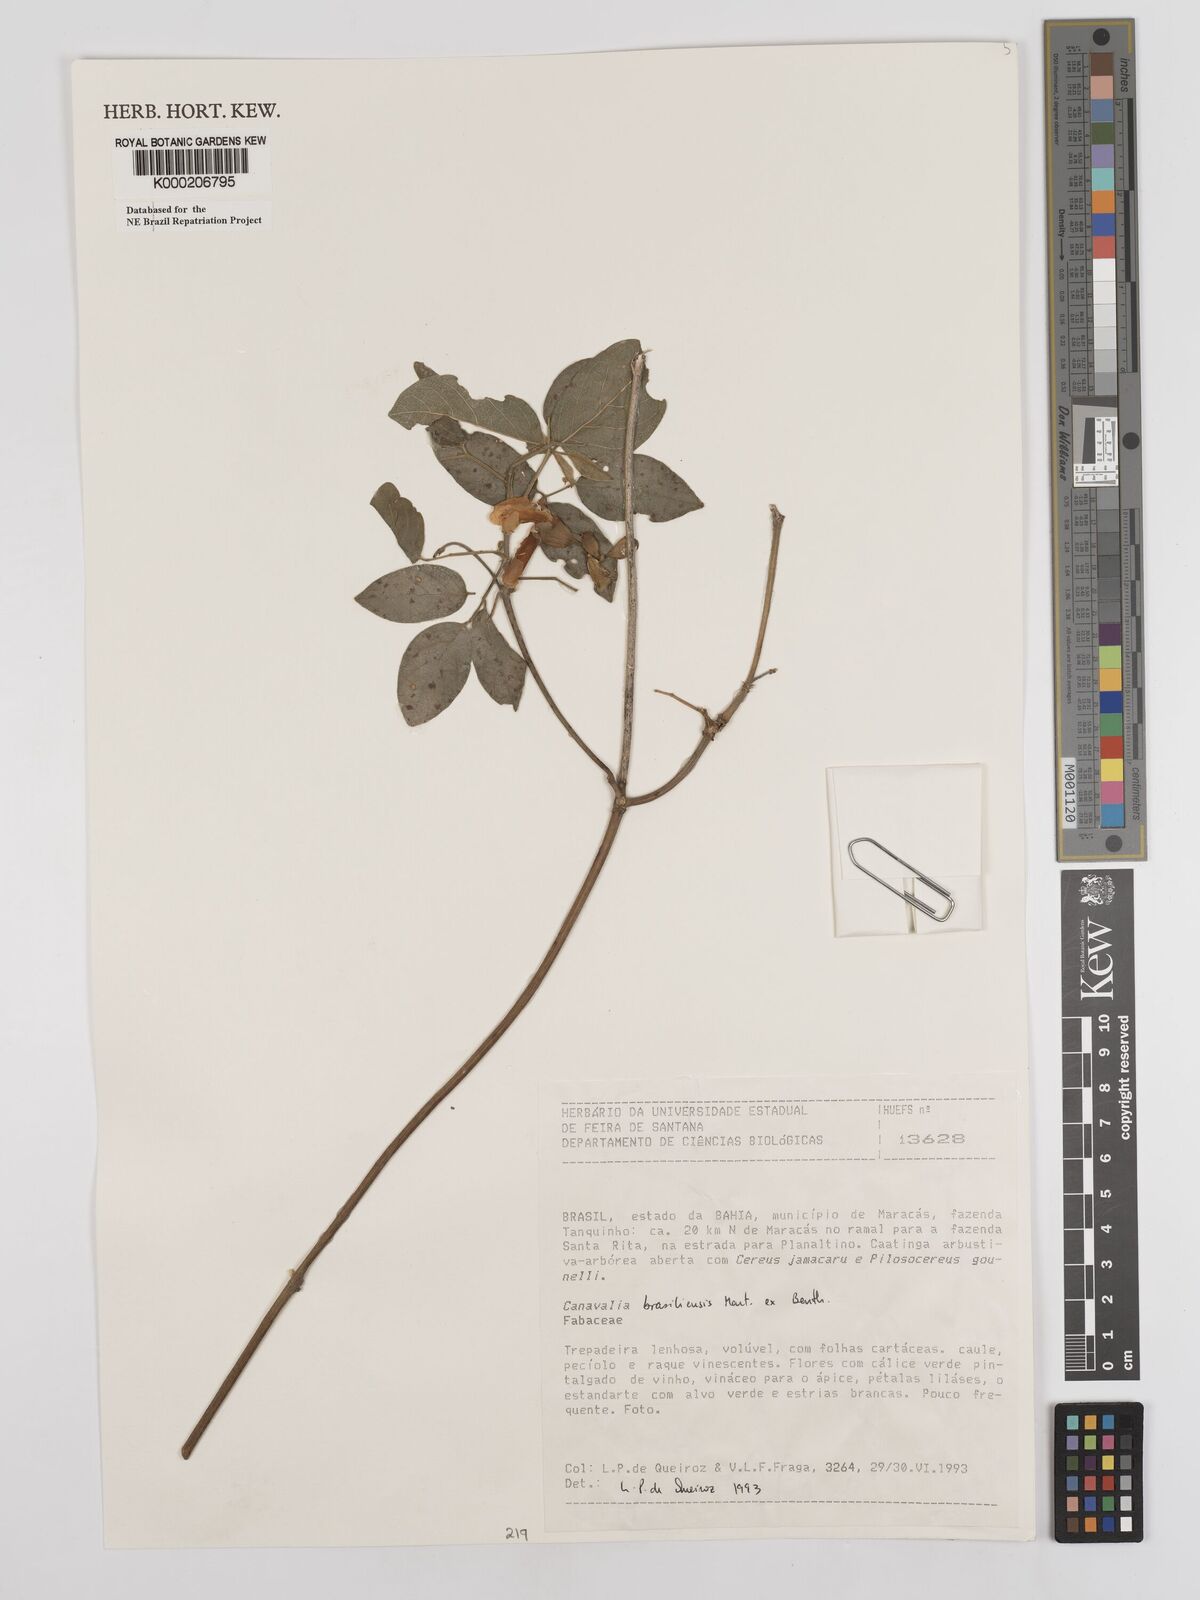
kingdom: Plantae
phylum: Tracheophyta
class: Magnoliopsida
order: Fabales
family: Fabaceae
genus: Canavalia
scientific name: Canavalia brasiliensis
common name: Barbicou-bean
